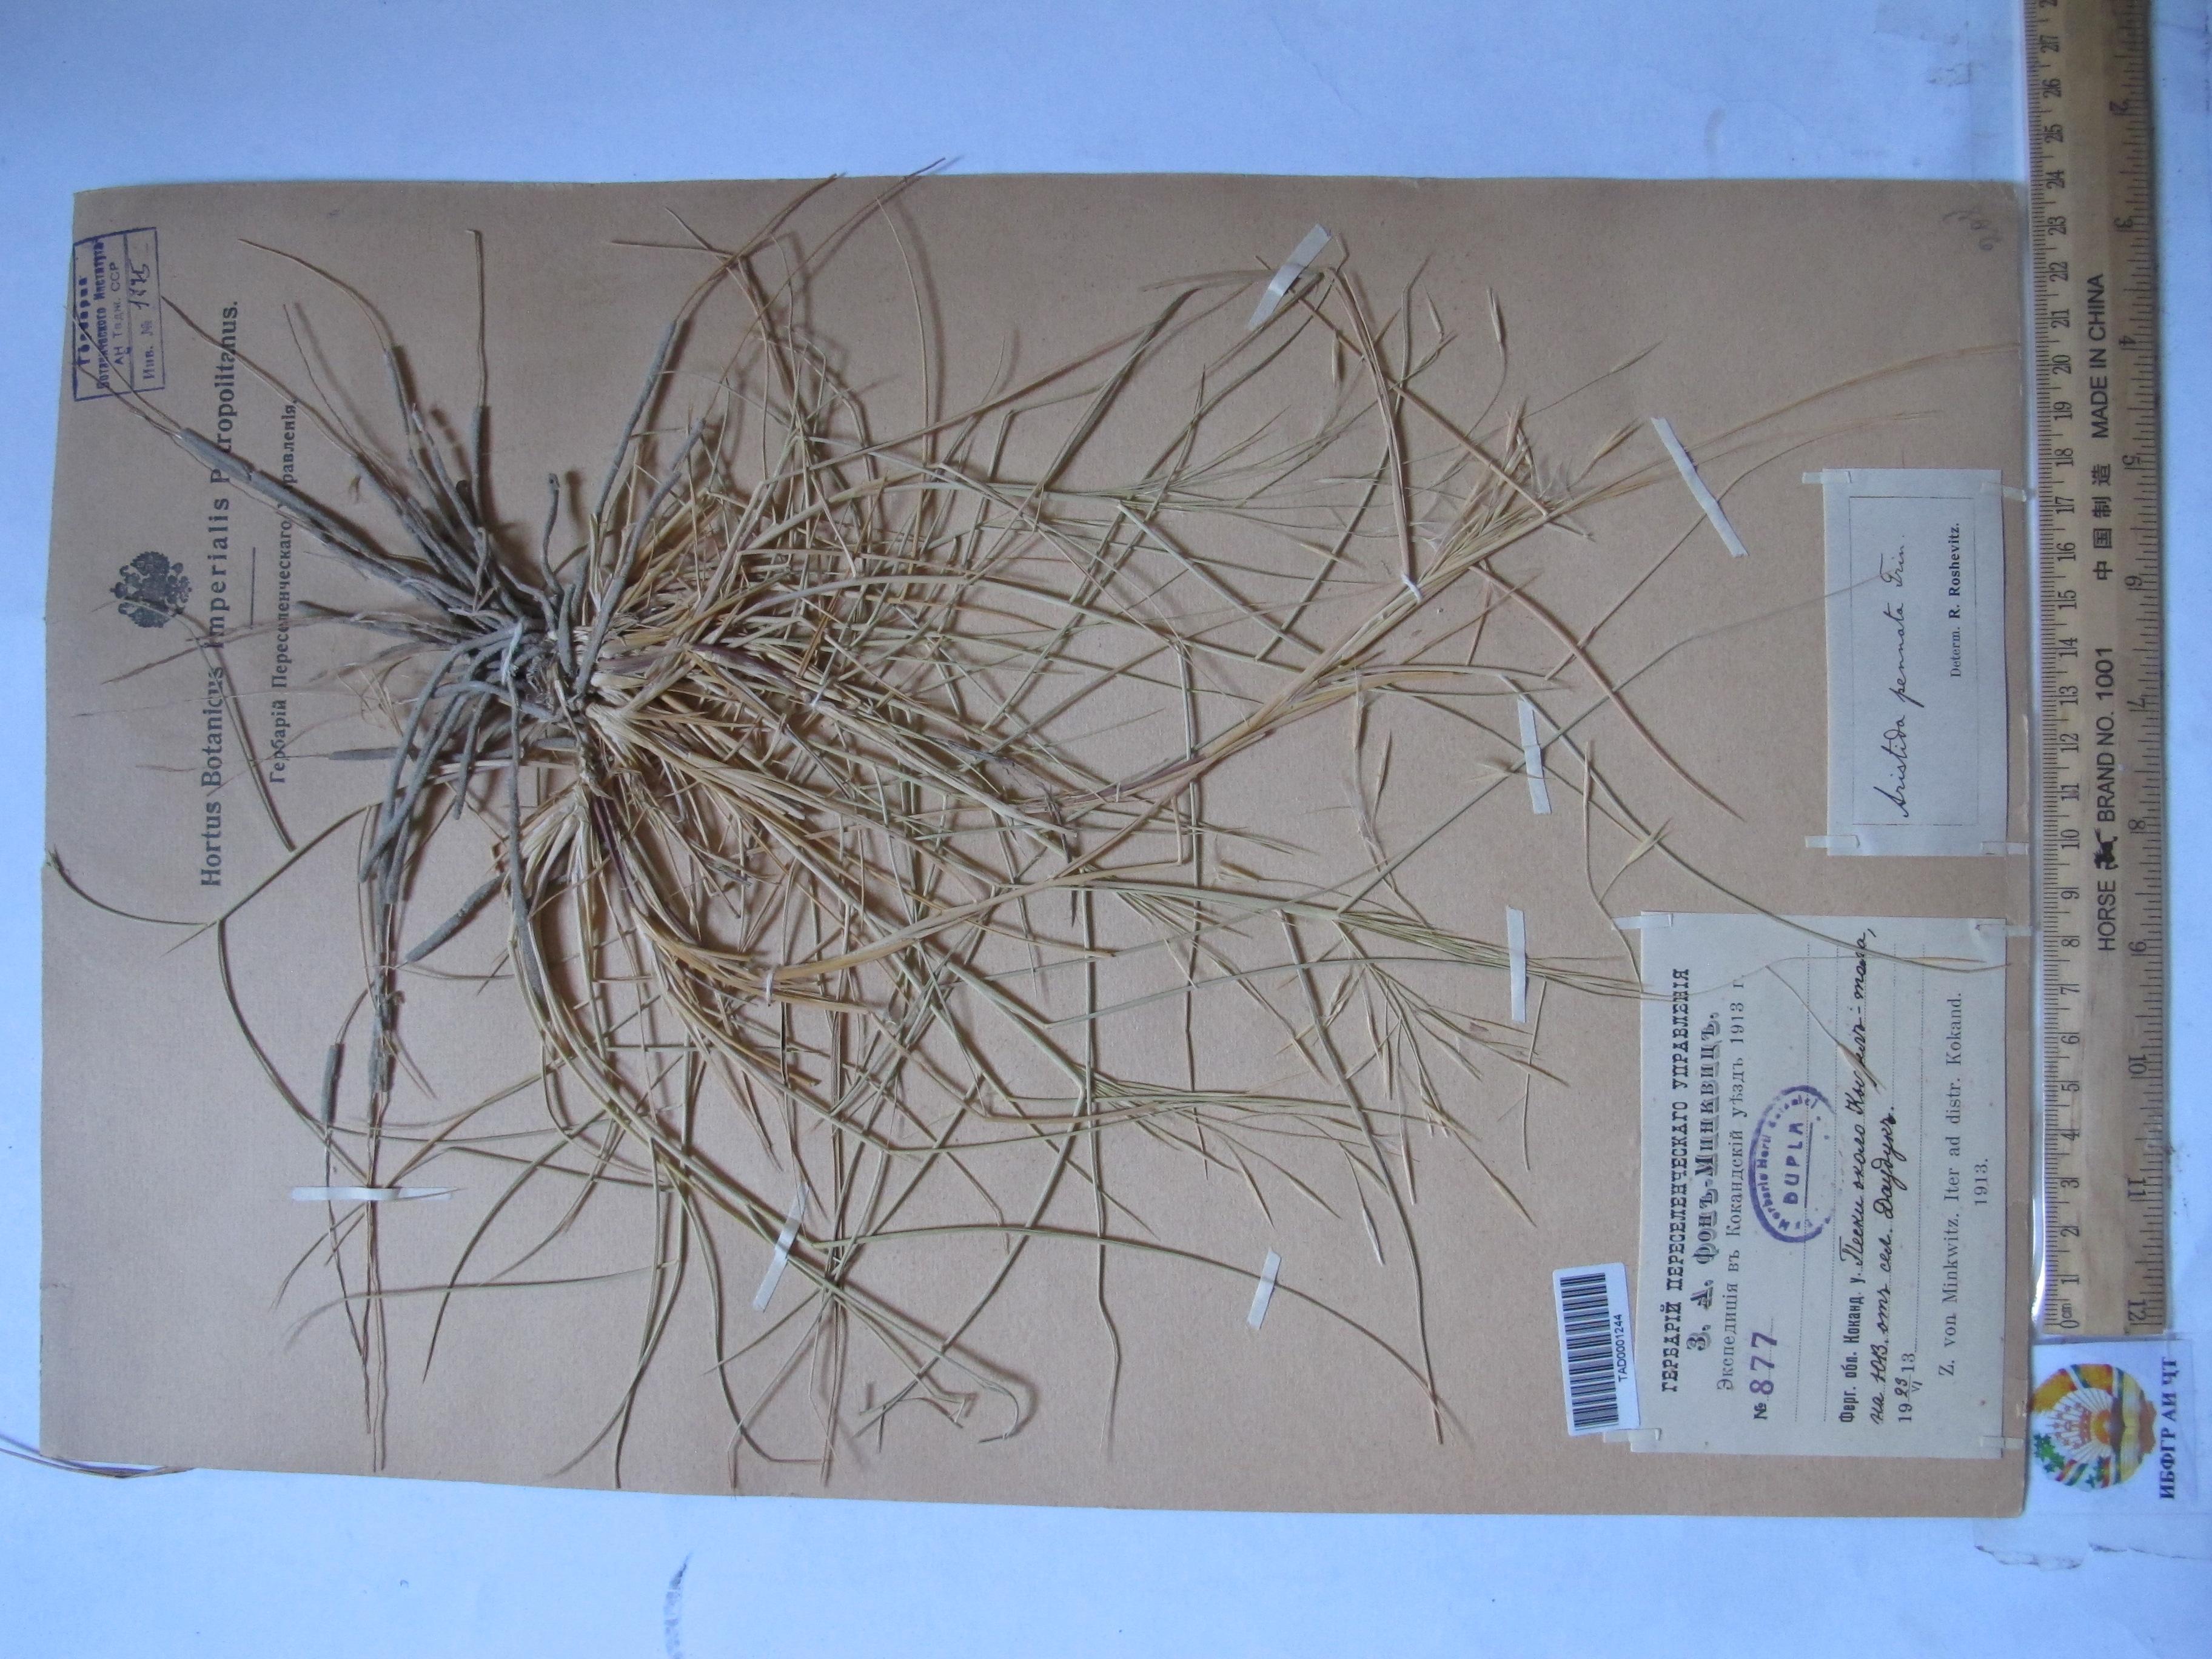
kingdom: Plantae
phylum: Tracheophyta
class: Liliopsida
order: Poales
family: Poaceae
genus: Stipagrostis
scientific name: Stipagrostis pennata
